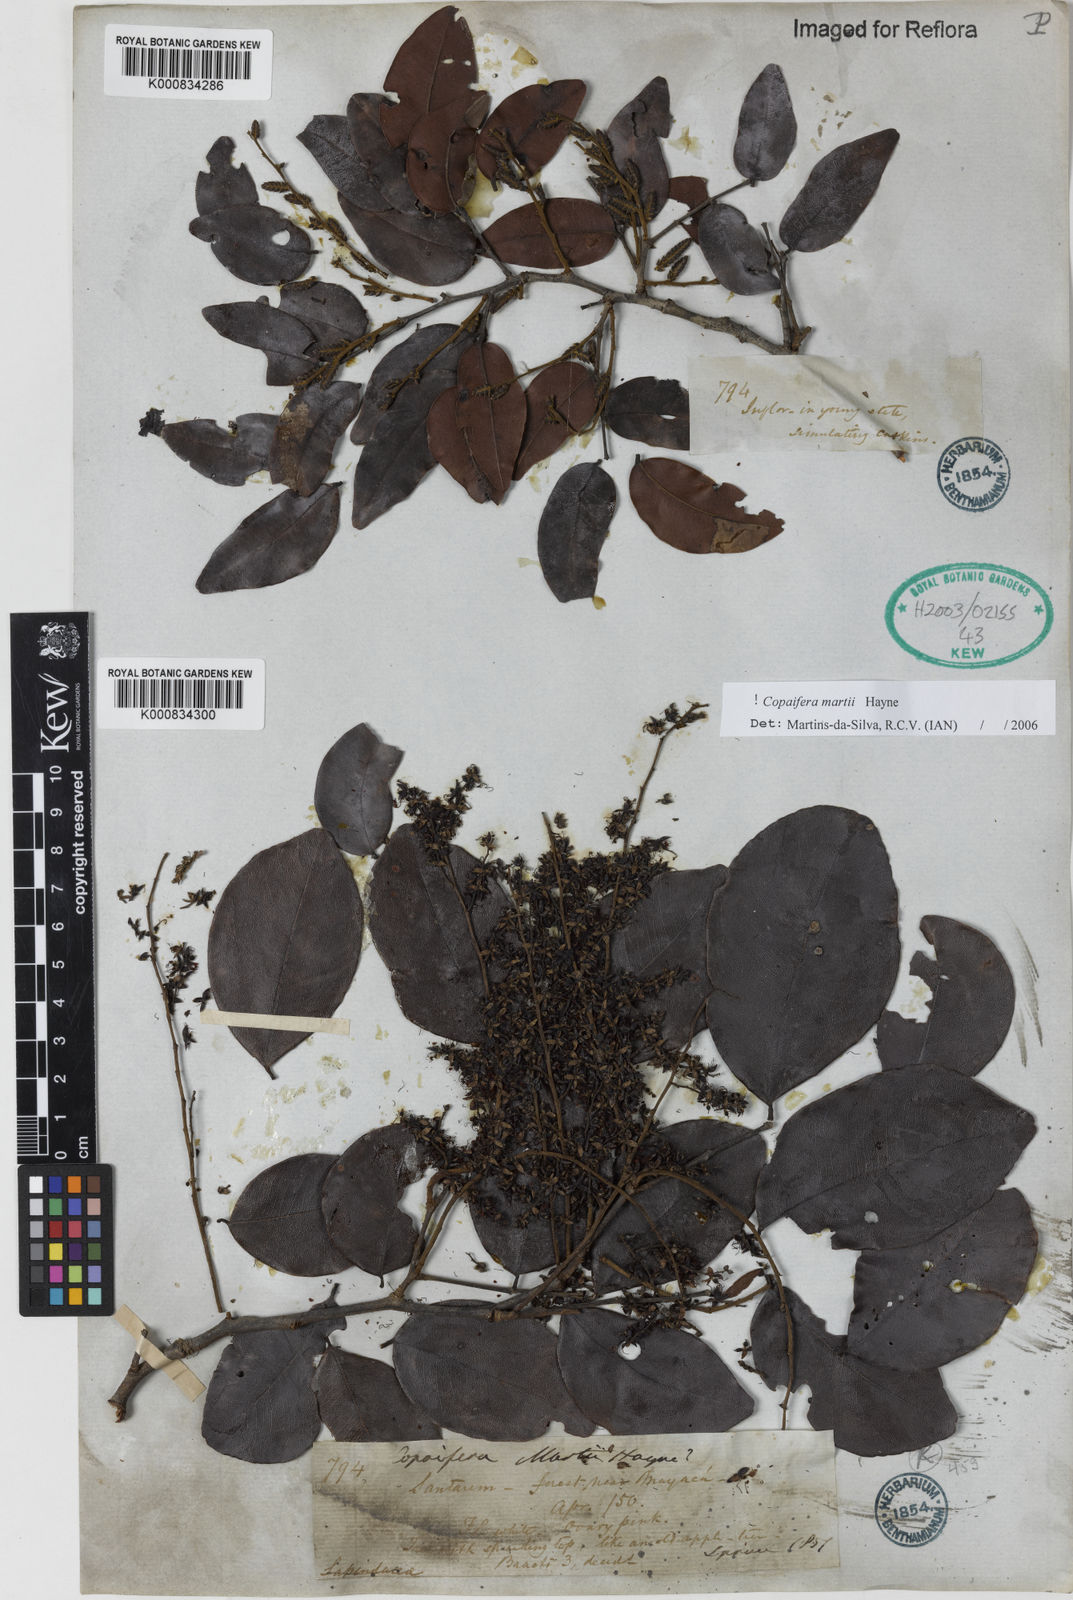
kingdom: Plantae
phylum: Tracheophyta
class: Magnoliopsida
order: Fabales
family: Fabaceae
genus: Copaifera
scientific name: Copaifera martii
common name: Copaiba
